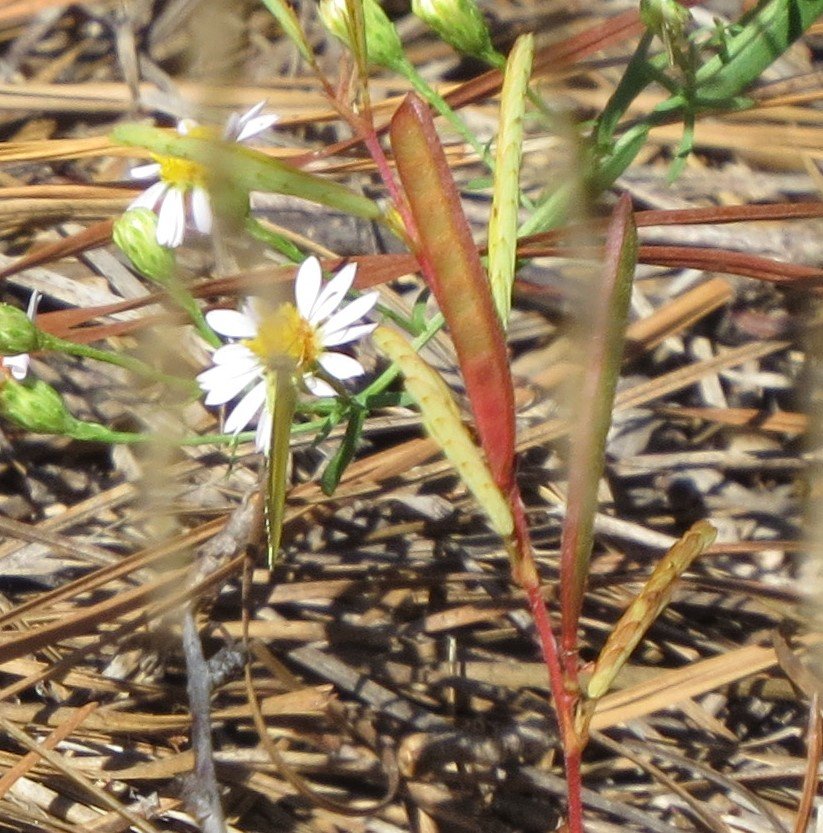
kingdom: Animalia
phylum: Arthropoda
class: Insecta
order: Lepidoptera
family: Pieridae
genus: Pyrisitia
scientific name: Pyrisitia lisa
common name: Little Yellow
